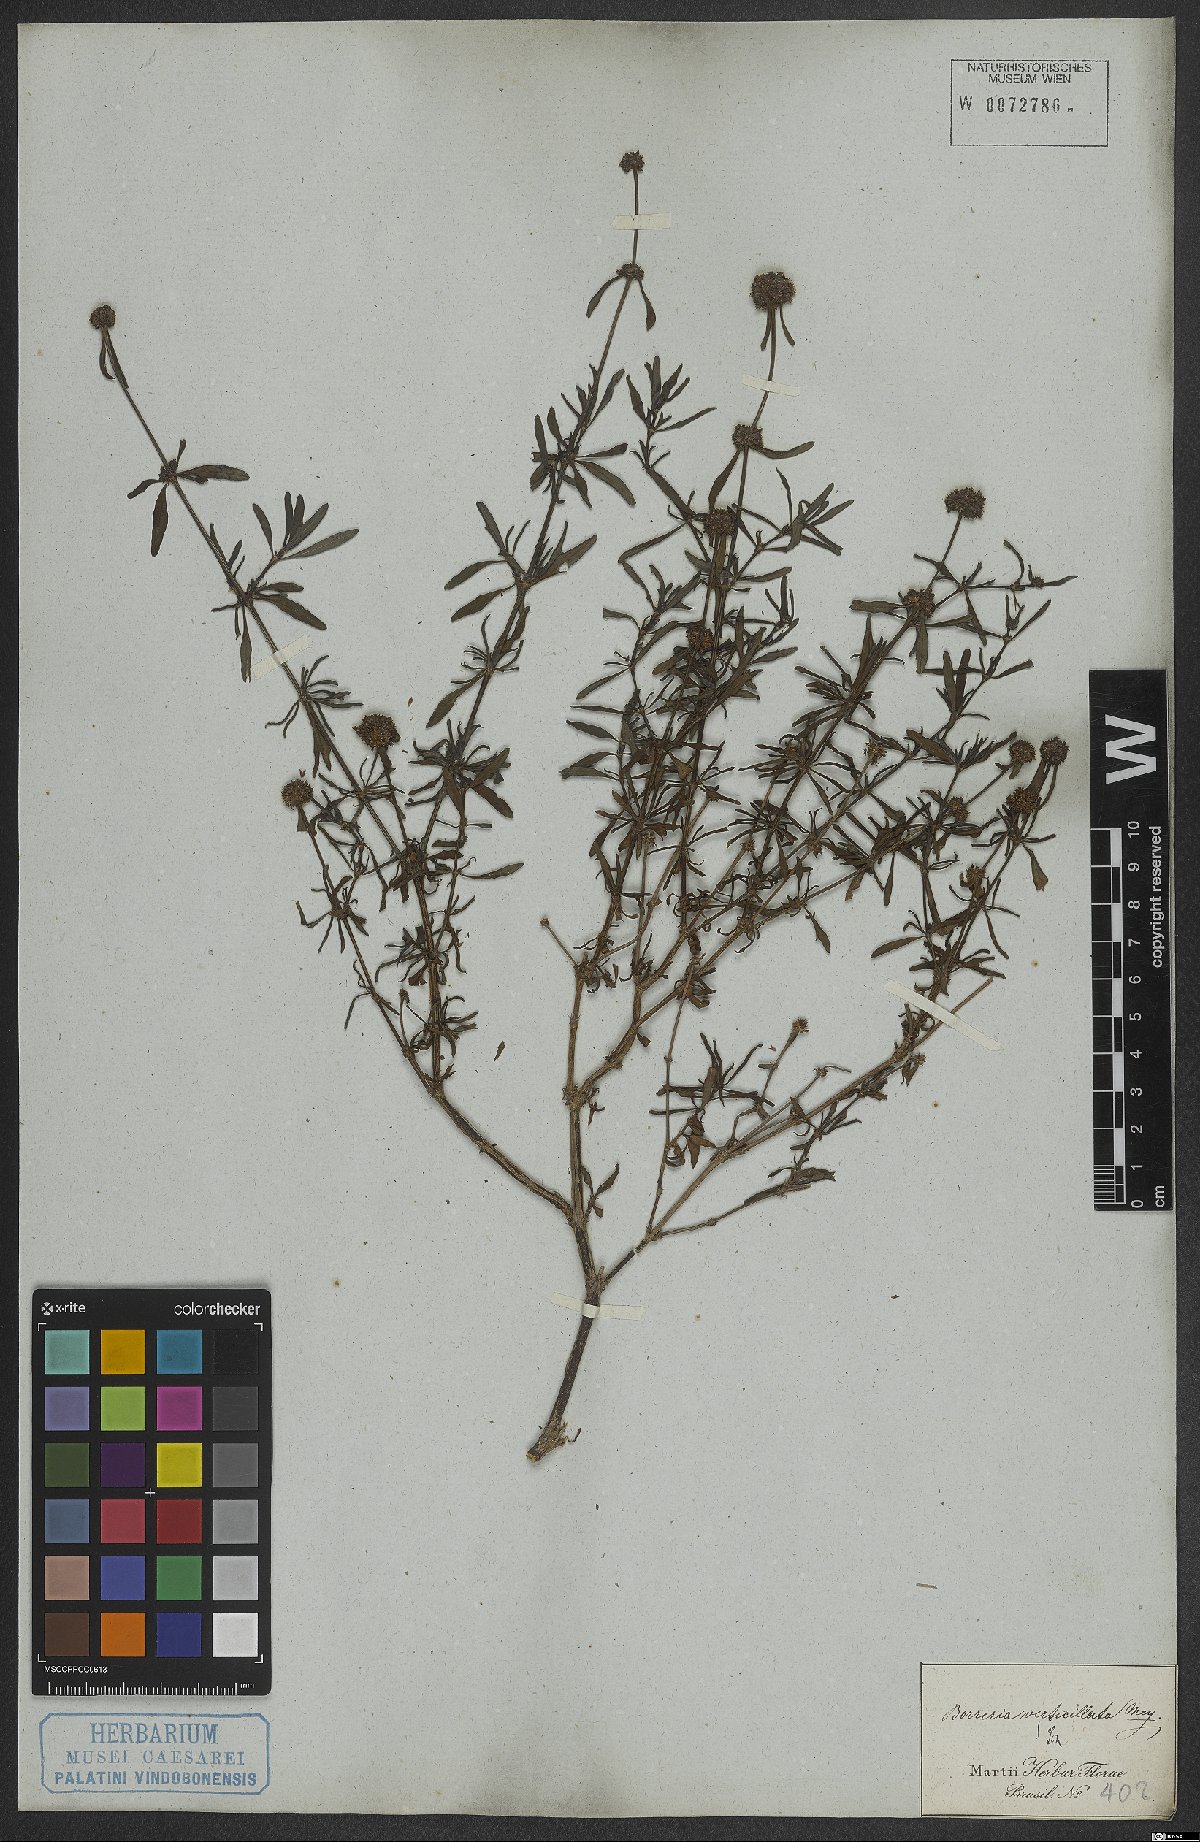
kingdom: Plantae
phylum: Tracheophyta
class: Magnoliopsida
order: Gentianales
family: Rubiaceae
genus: Spermacoce
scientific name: Spermacoce verticillata
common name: Shrubby false buttonweed
